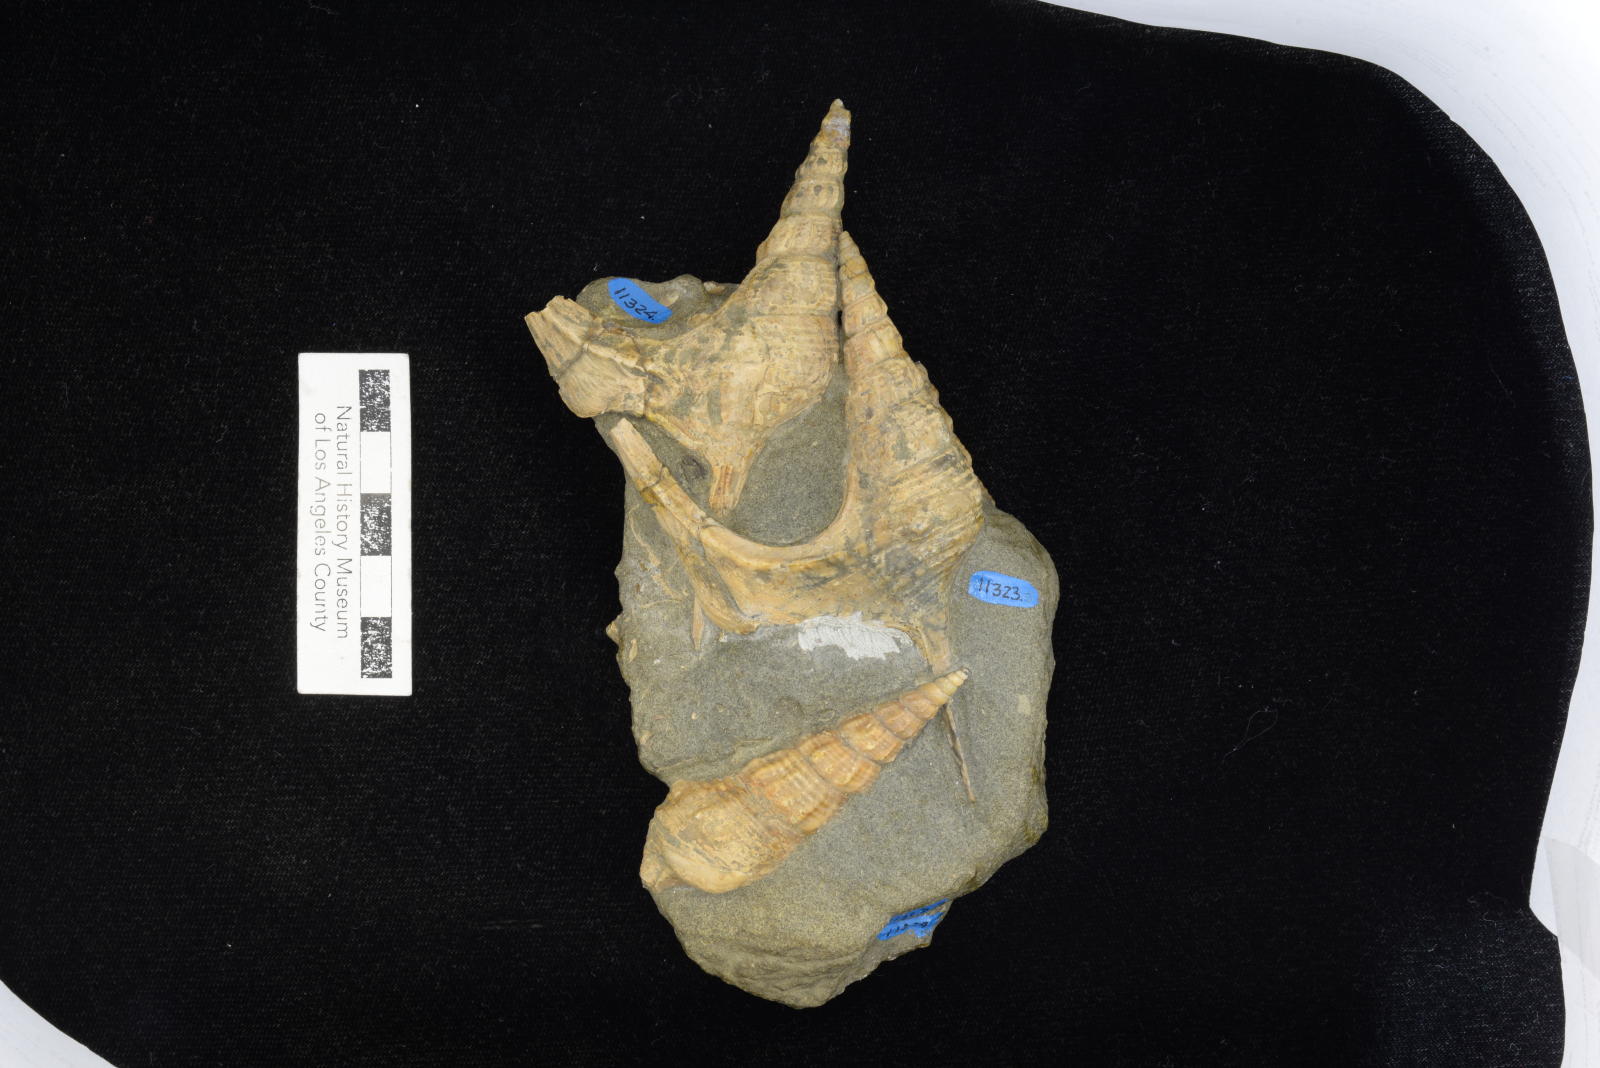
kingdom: Animalia
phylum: Mollusca
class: Gastropoda
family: Nerineidae
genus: Plesioptygmatis
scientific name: Plesioptygmatis Nerinea pseudoconvexa
